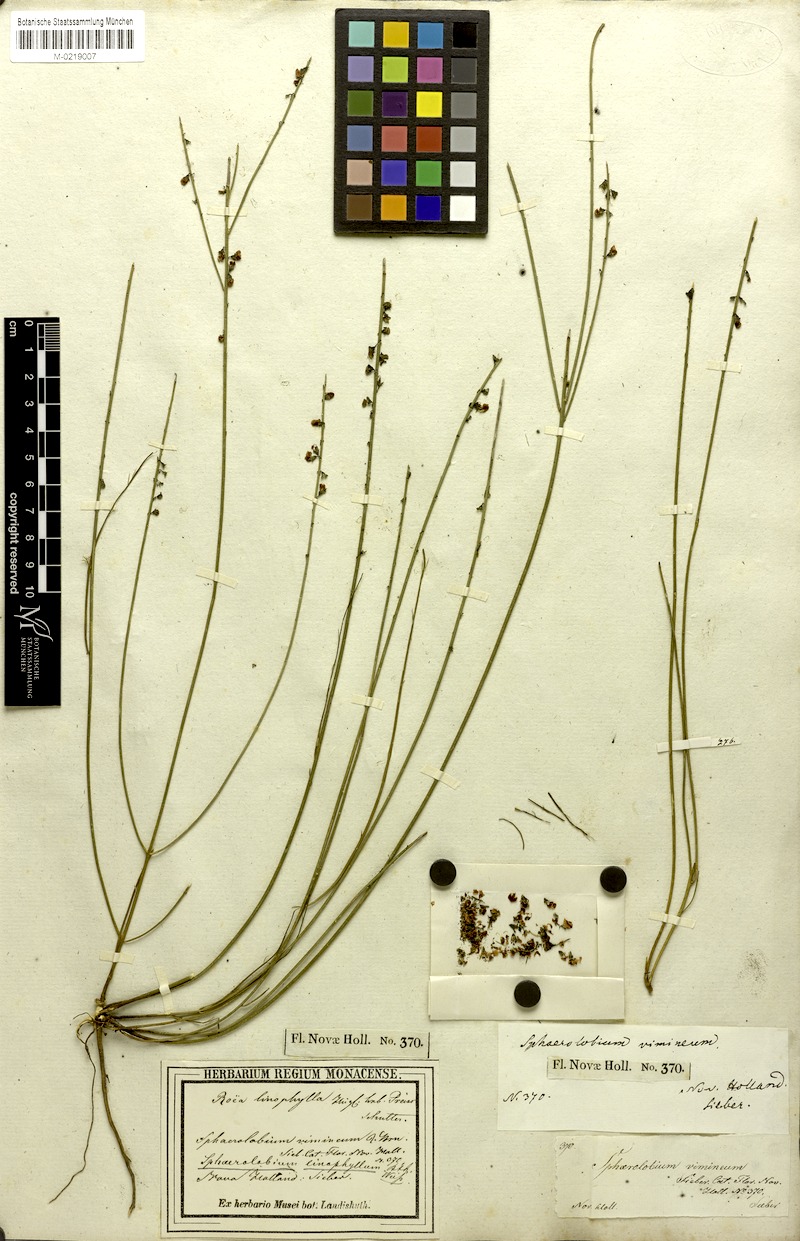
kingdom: Plantae
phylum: Tracheophyta
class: Magnoliopsida
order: Fabales
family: Fabaceae
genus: Sphaerolobium
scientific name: Sphaerolobium linophyllum
